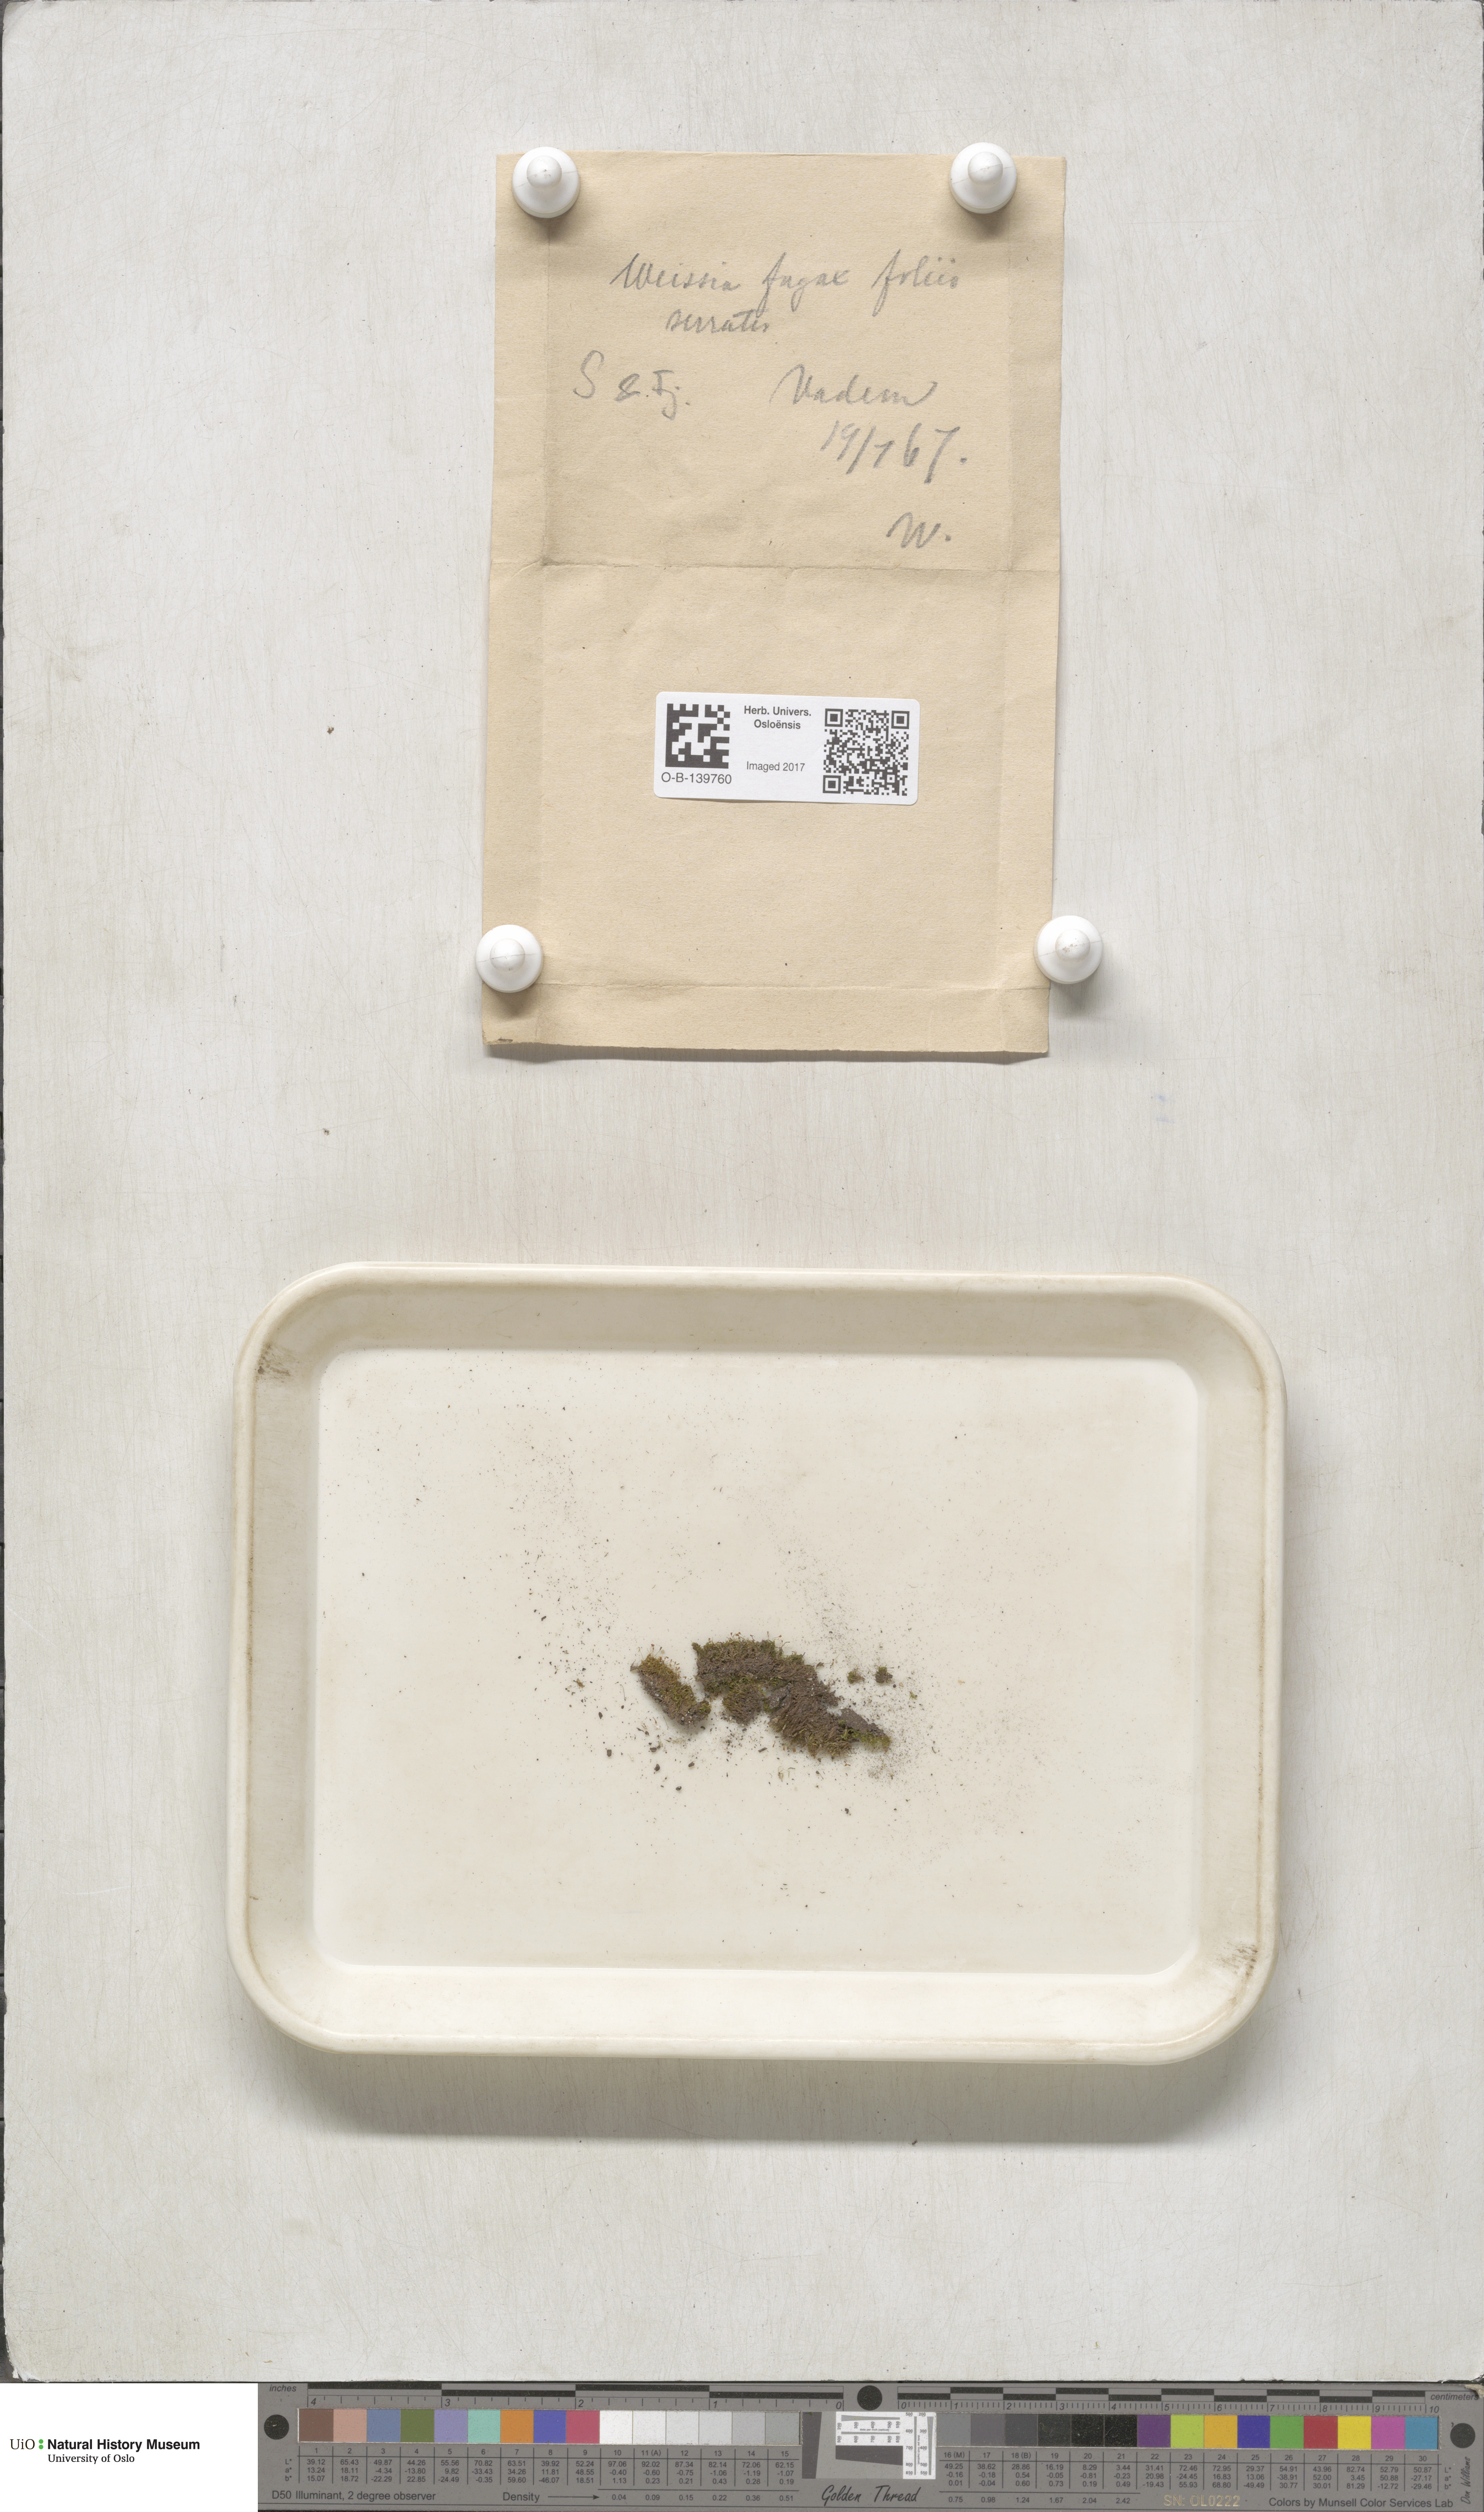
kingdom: Plantae
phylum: Bryophyta
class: Bryopsida
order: Dicranales
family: Rhabdoweisiaceae
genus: Rhabdoweisia
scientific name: Rhabdoweisia fugax
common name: Dwarf streak-moss
